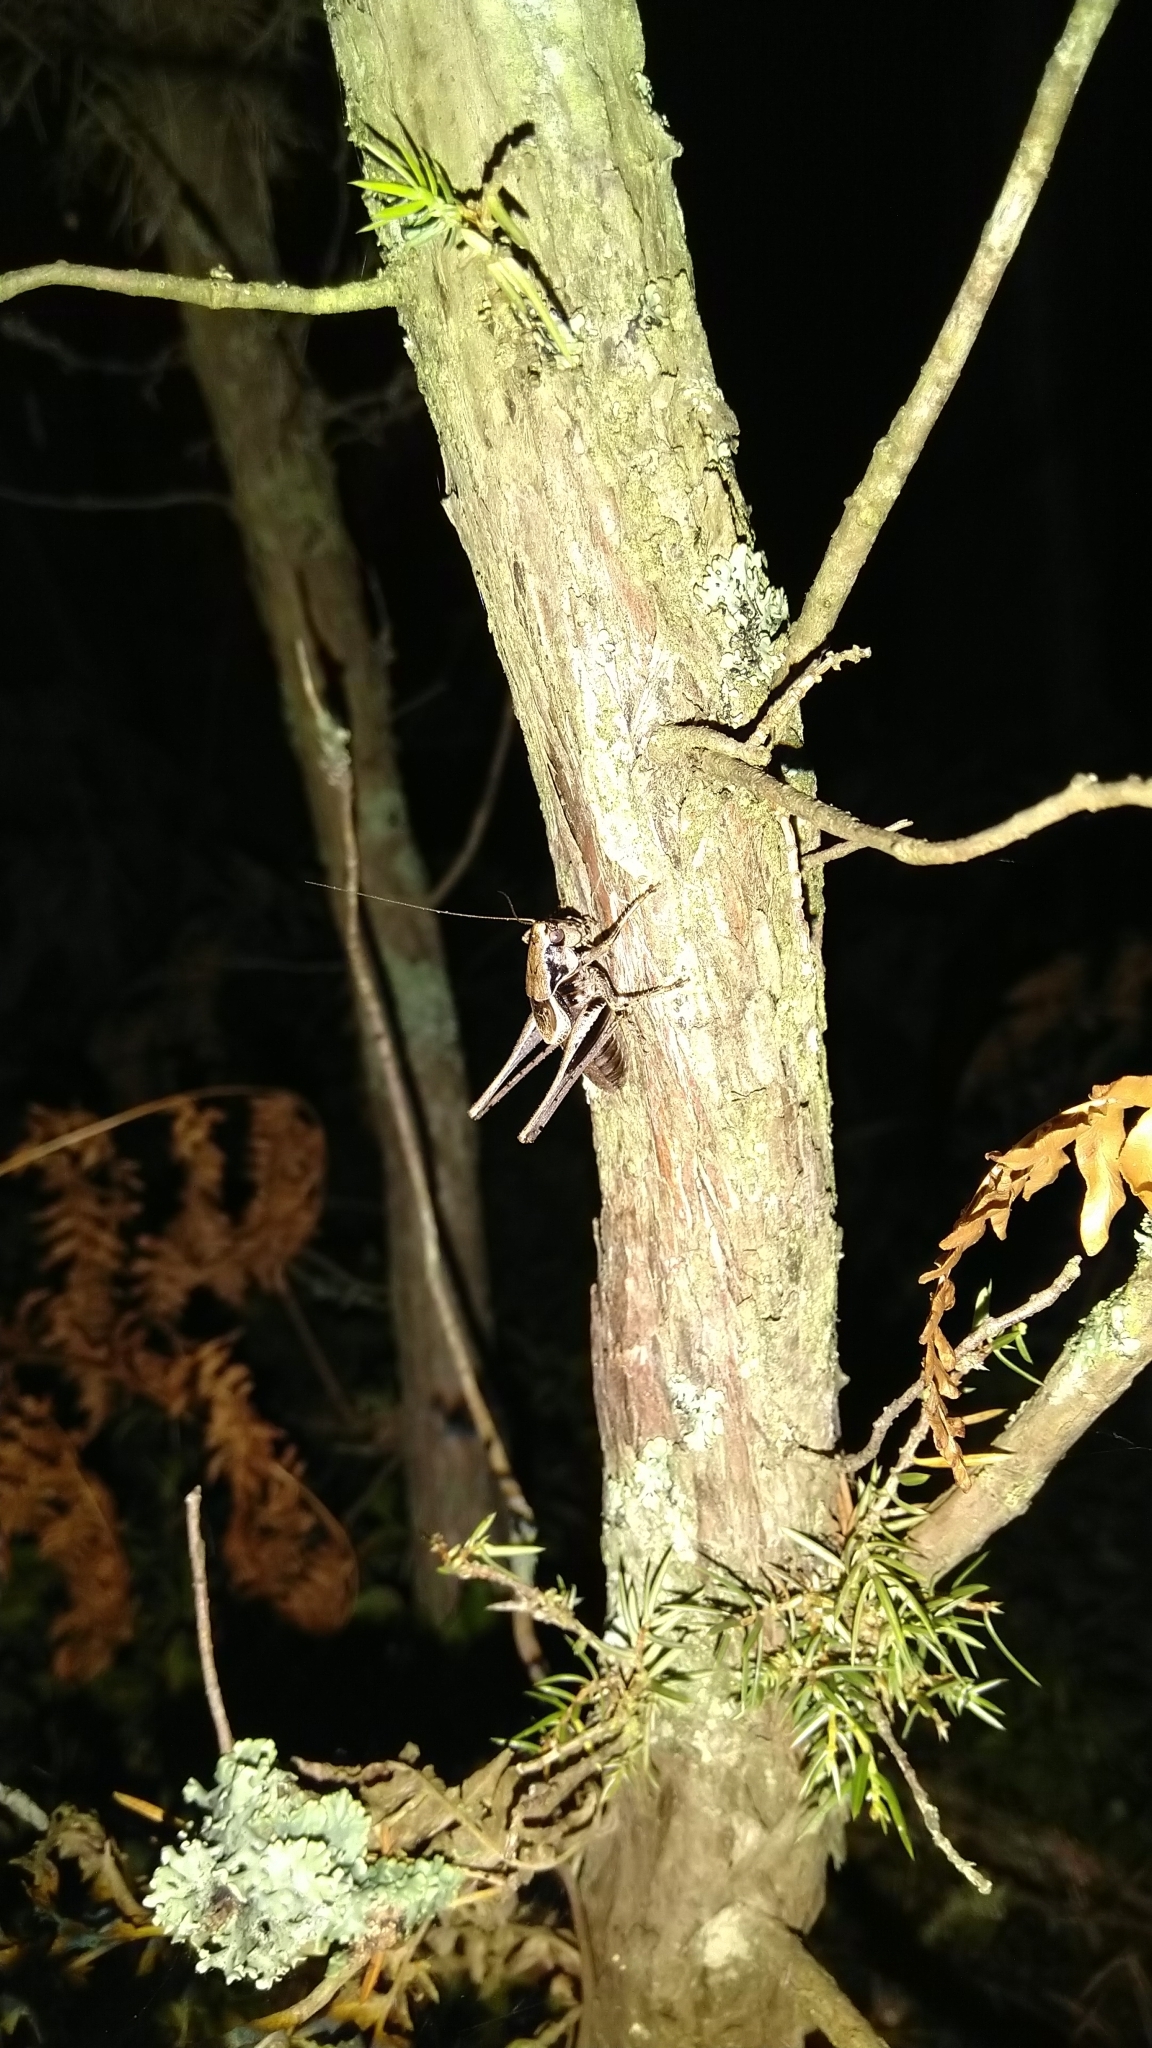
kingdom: Animalia
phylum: Arthropoda
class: Insecta
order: Orthoptera
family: Tettigoniidae
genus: Pholidoptera
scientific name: Pholidoptera griseoaptera
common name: Dark bush-cricket
